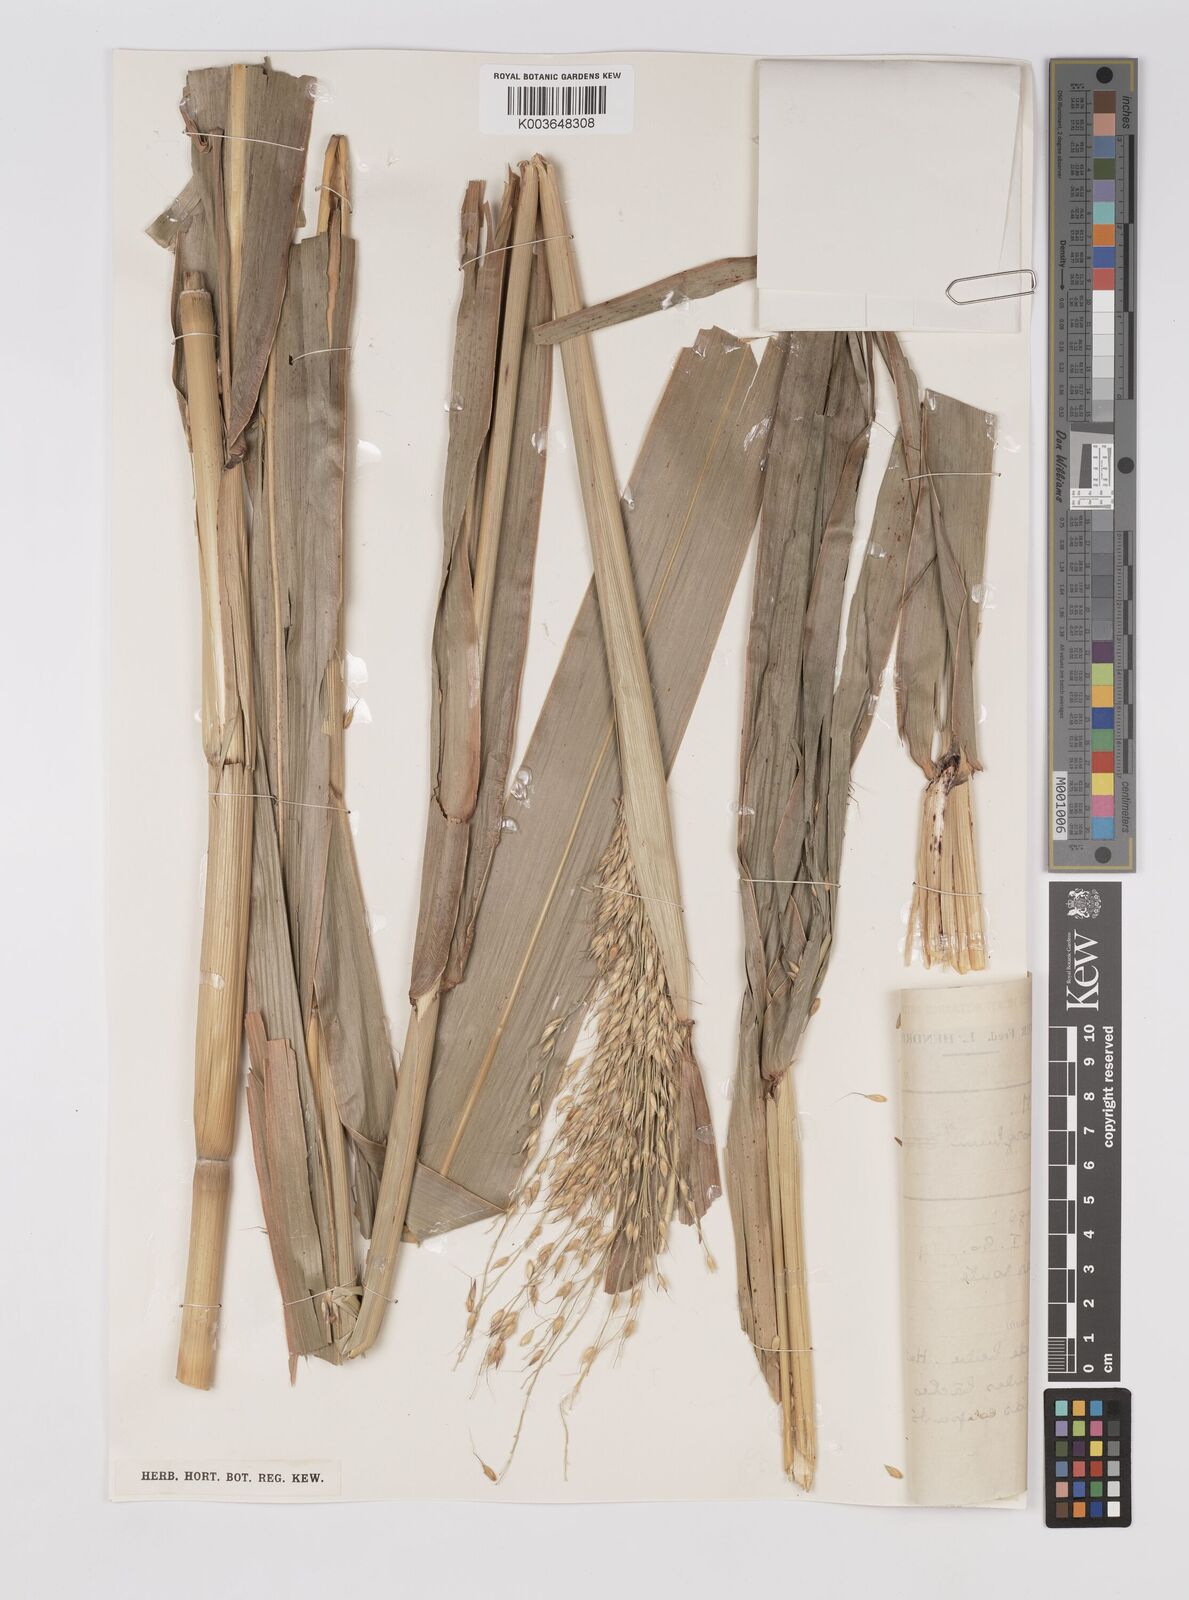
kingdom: Plantae
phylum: Tracheophyta
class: Liliopsida
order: Poales
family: Poaceae
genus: Sorghum
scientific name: Sorghum arundinaceum
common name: Sorghum
